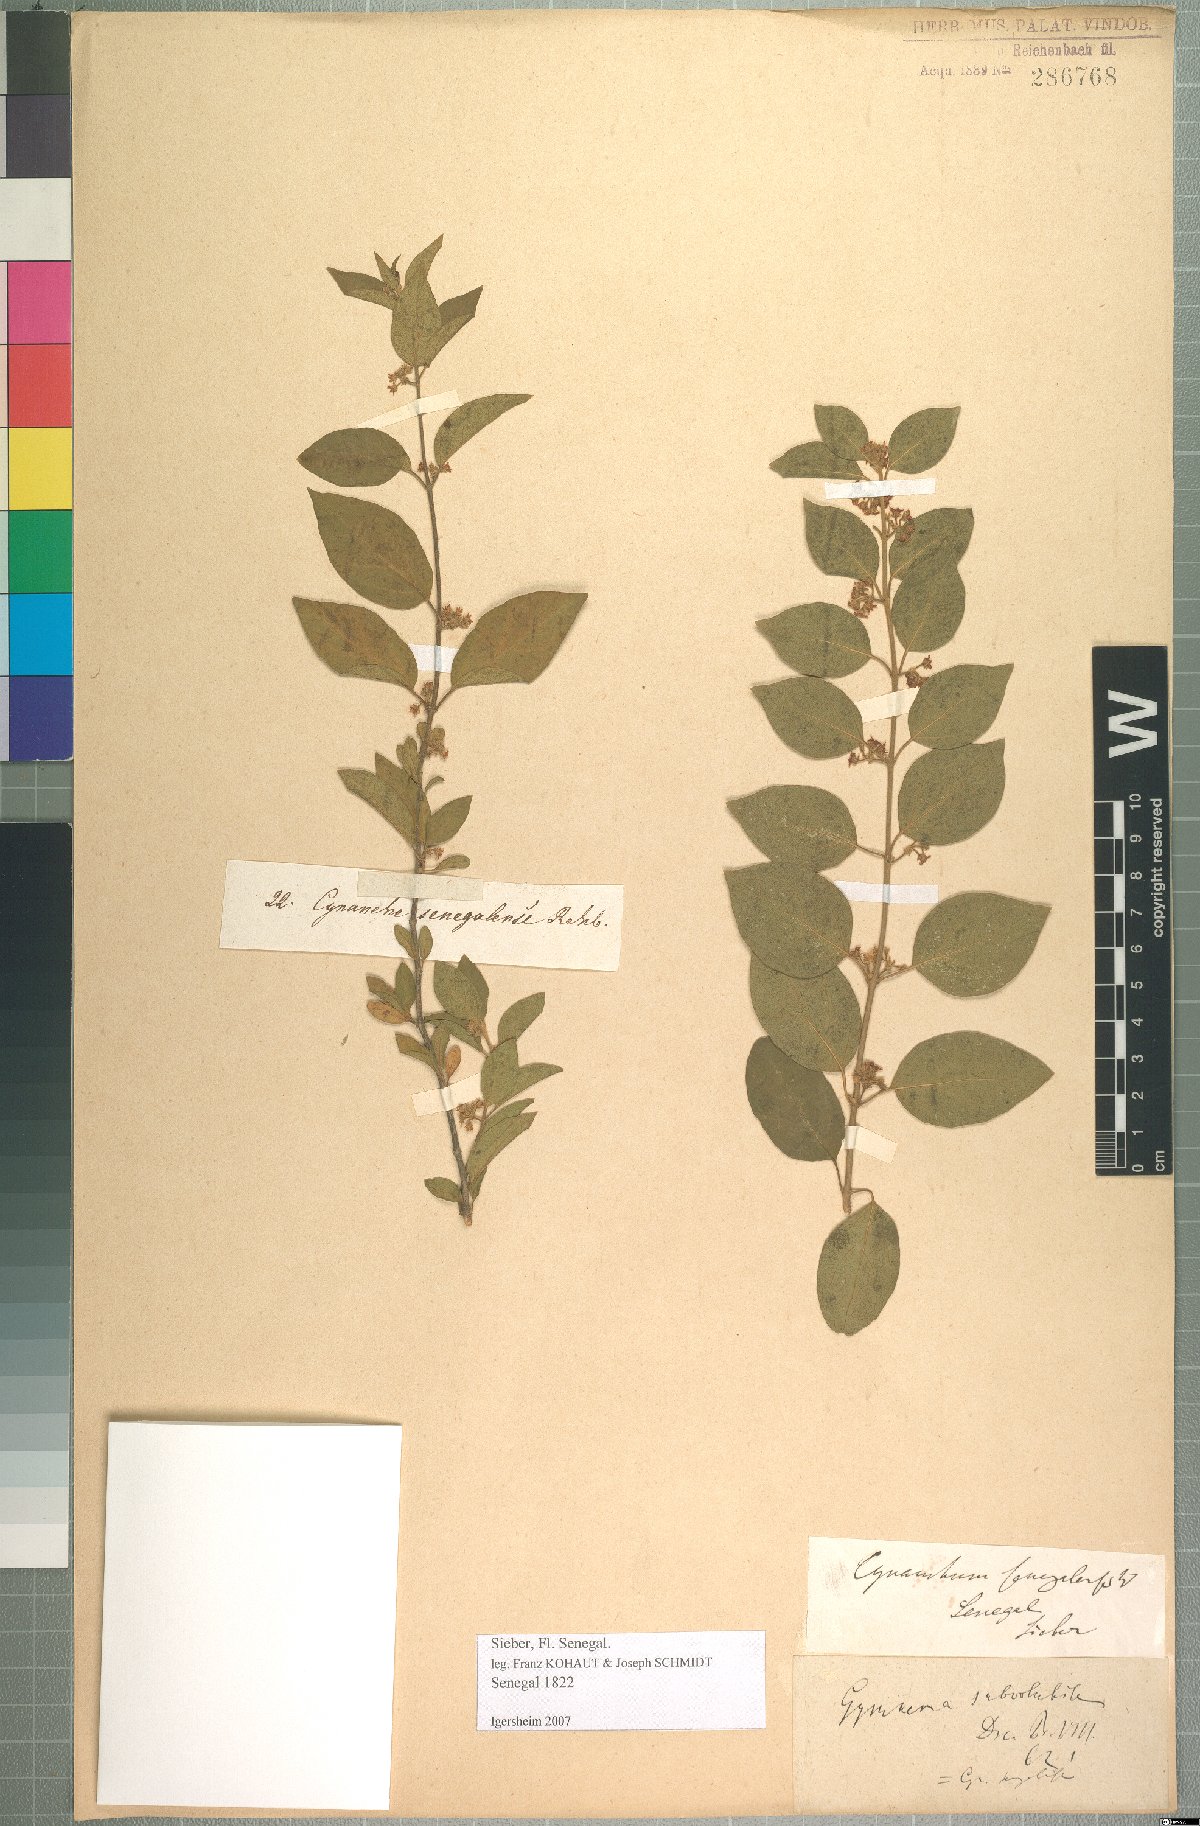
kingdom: Plantae
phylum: Tracheophyta
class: Magnoliopsida
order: Gentianales
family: Apocynaceae
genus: Gymnema
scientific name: Gymnema sylvestre
